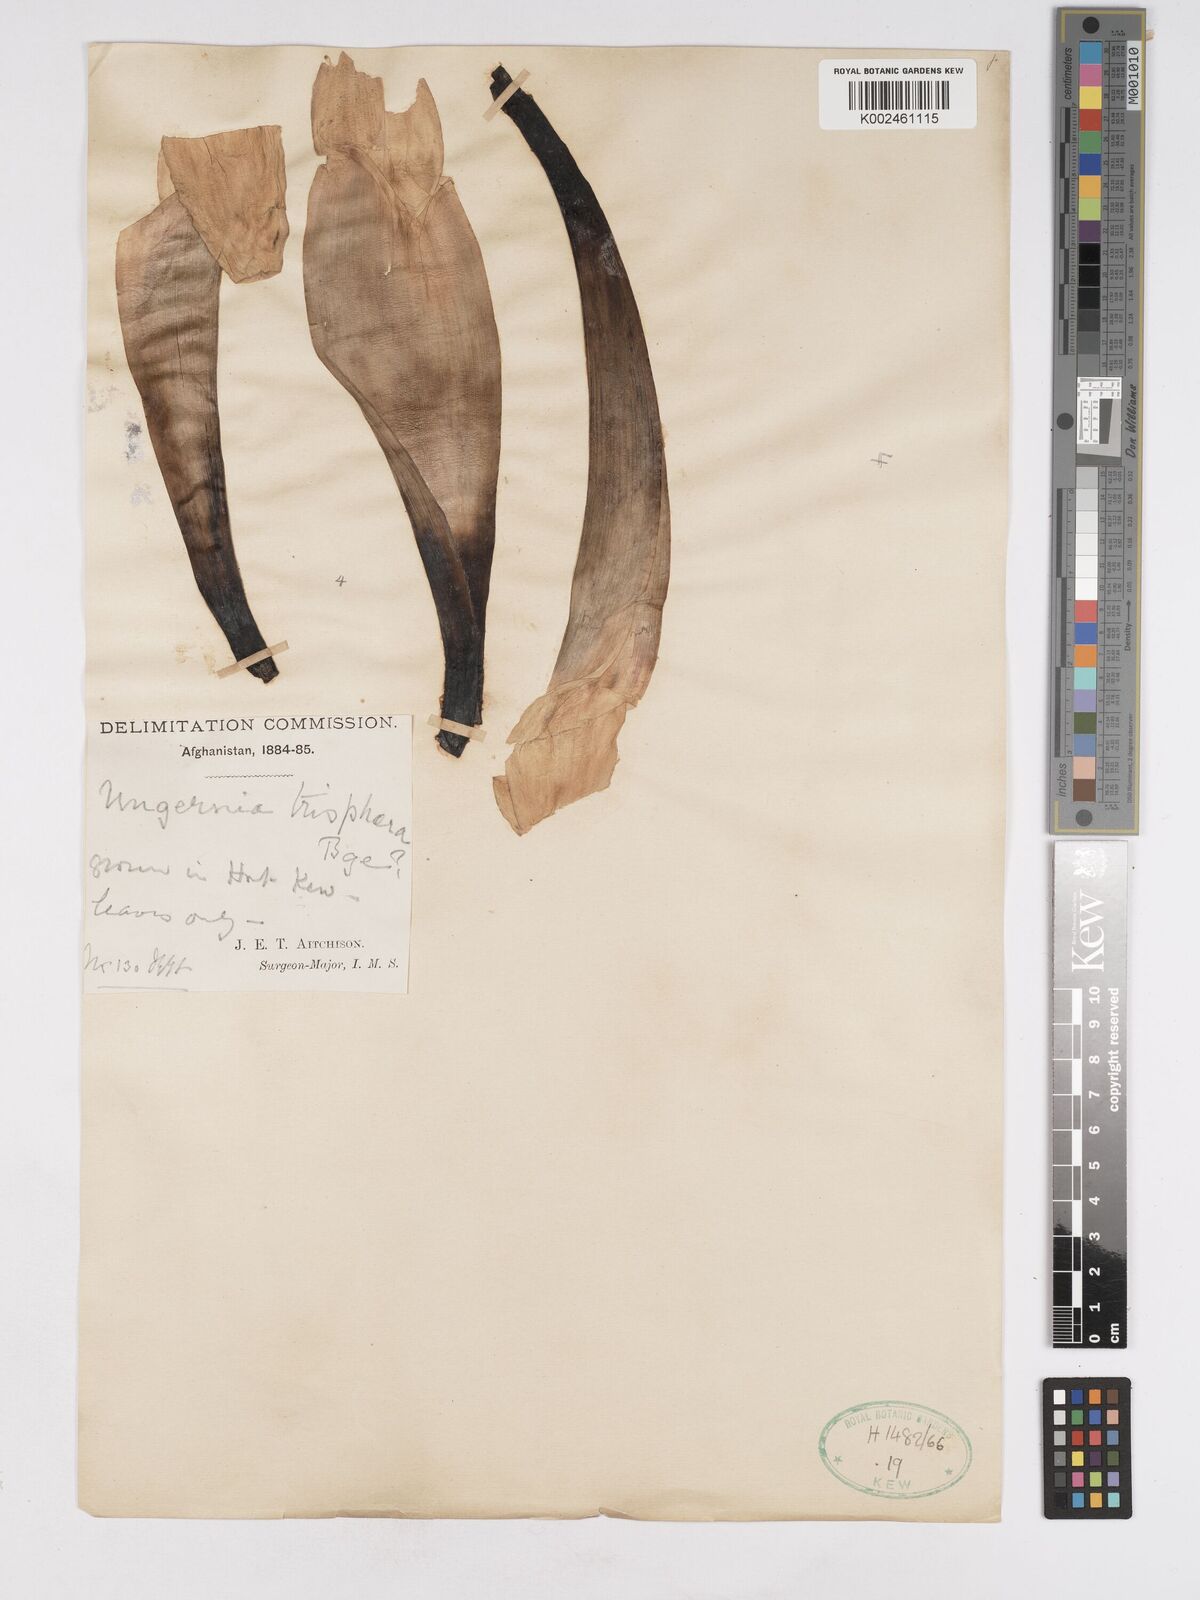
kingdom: Plantae
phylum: Tracheophyta
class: Liliopsida
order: Asparagales
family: Amaryllidaceae
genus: Ungernia
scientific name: Ungernia trisphaera
